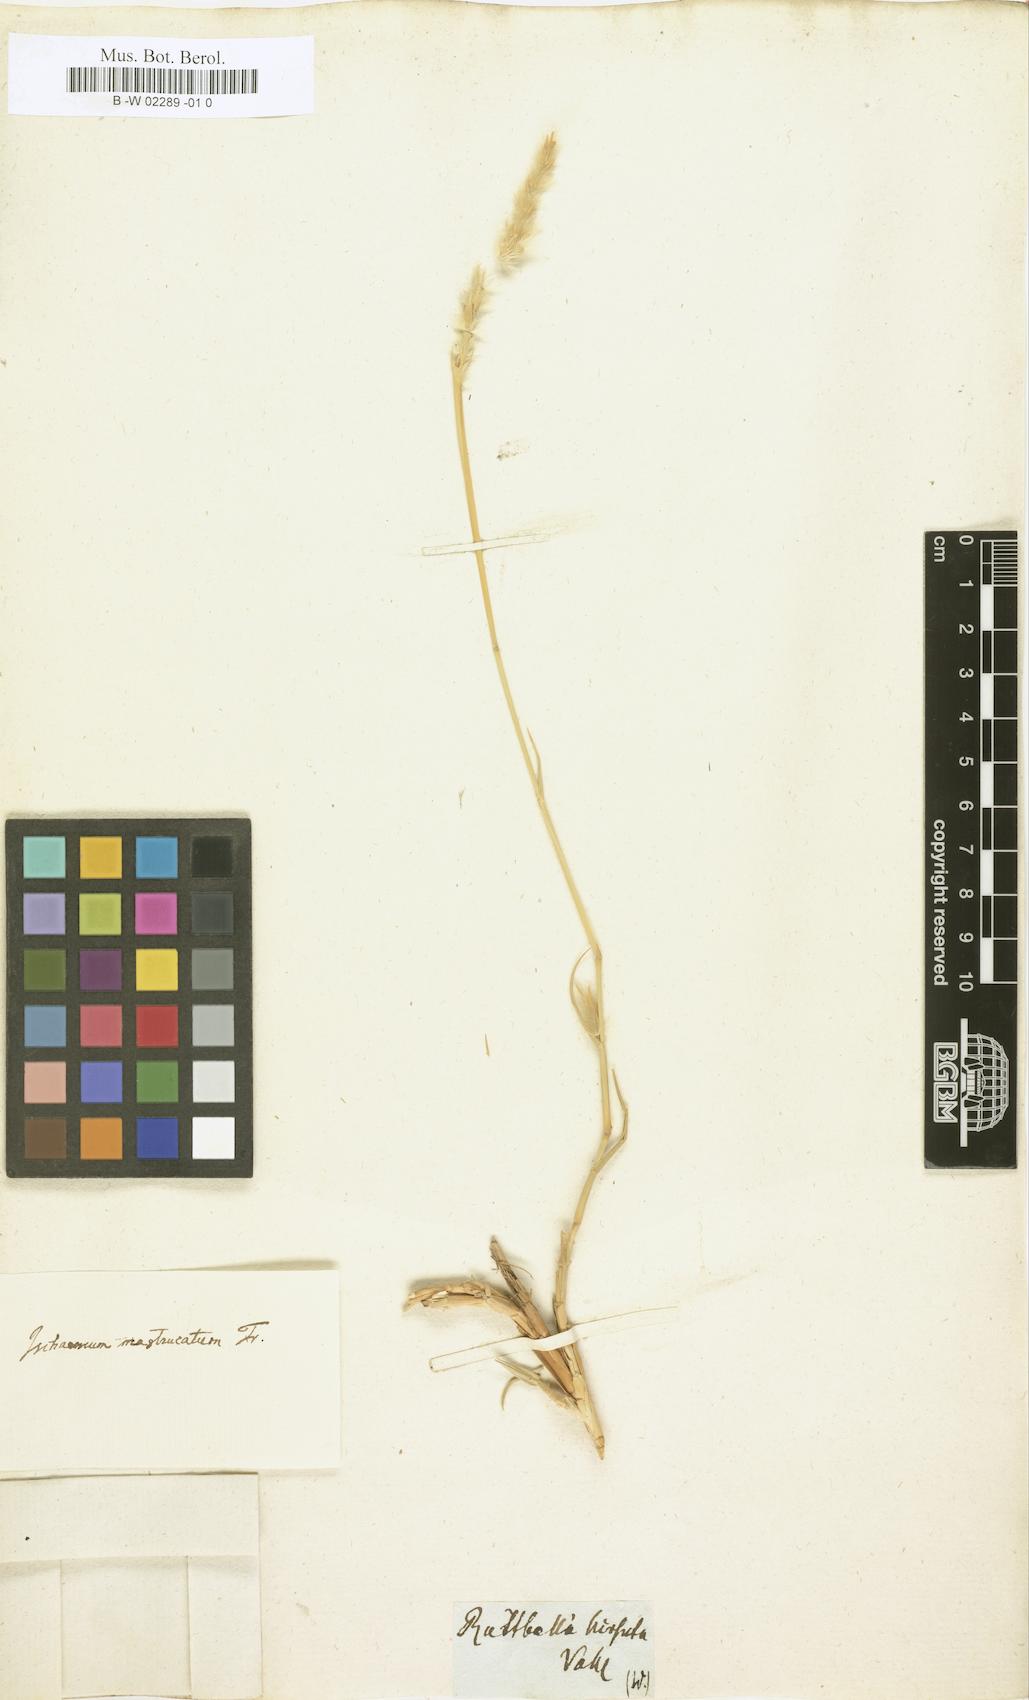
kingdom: Plantae
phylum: Tracheophyta
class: Liliopsida
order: Poales
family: Poaceae
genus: Lasiurus
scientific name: Lasiurus scindicus
